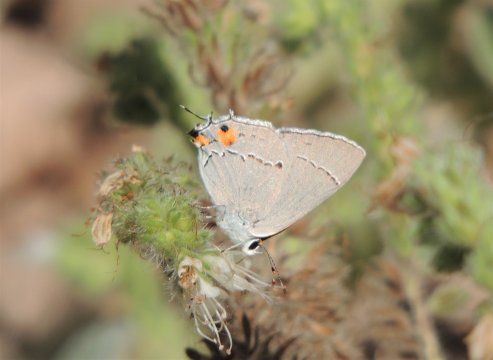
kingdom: Animalia
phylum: Arthropoda
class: Insecta
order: Lepidoptera
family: Lycaenidae
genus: Strymon
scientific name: Strymon melinus
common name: Gray Hairstreak
